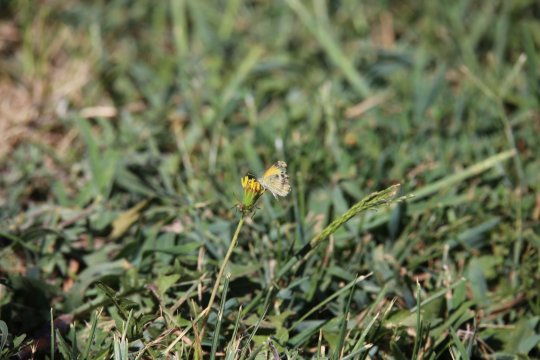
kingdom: Animalia
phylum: Arthropoda
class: Insecta
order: Lepidoptera
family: Pieridae
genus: Nathalis
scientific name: Nathalis iole
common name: Dainty Sulphur
